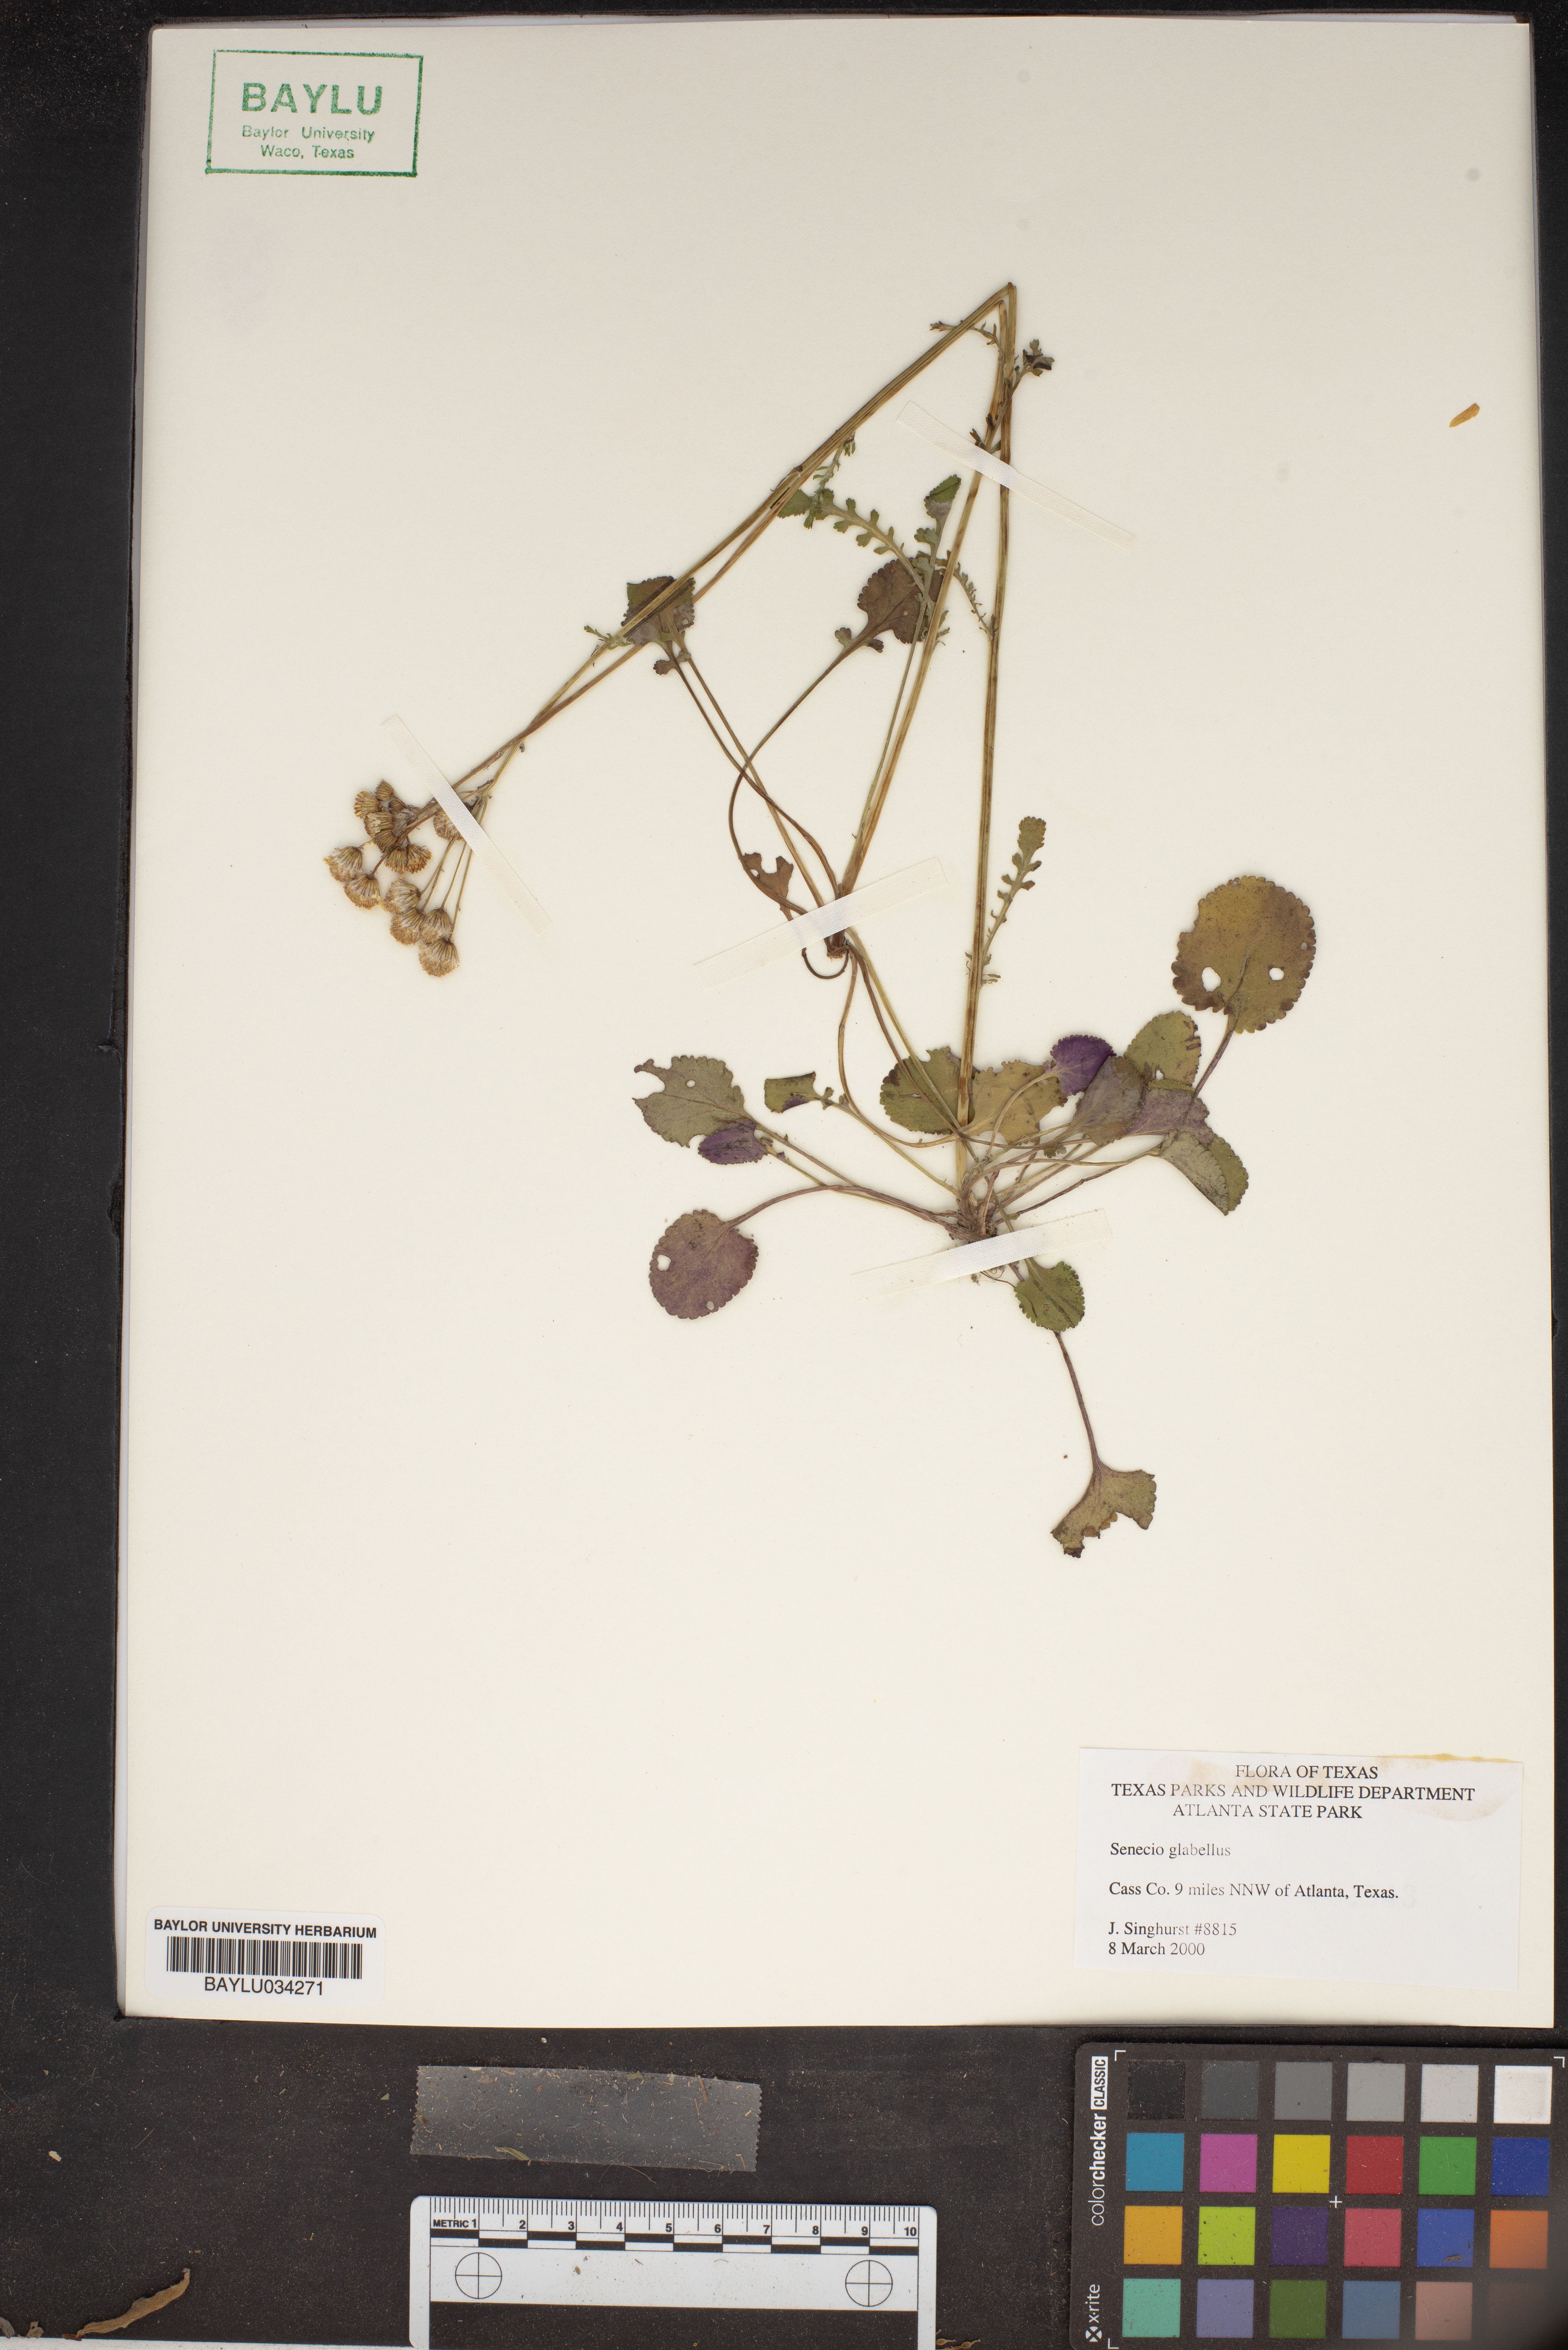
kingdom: Plantae
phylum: Tracheophyta
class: Magnoliopsida
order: Asterales
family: Asteraceae
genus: Tephroseris
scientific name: Tephroseris praticola
